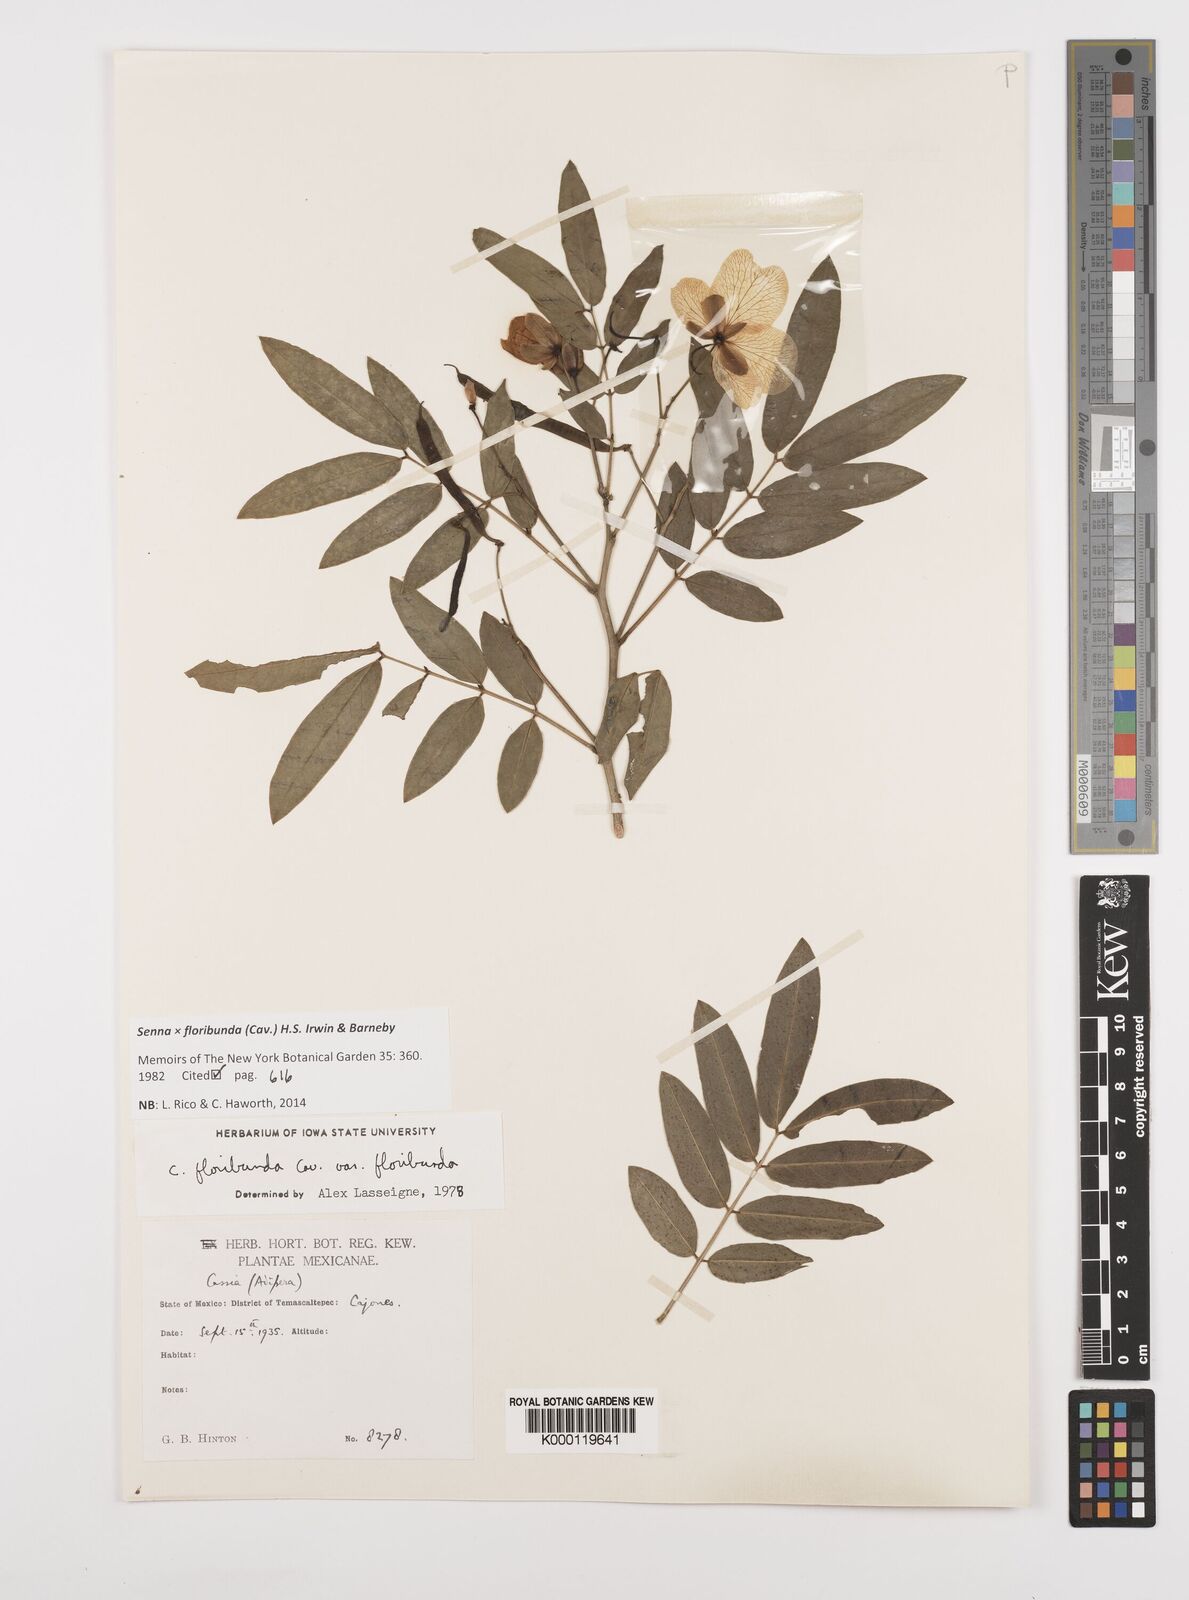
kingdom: Plantae
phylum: Tracheophyta
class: Magnoliopsida
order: Fabales
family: Fabaceae
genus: Senna
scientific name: Senna floribunda
